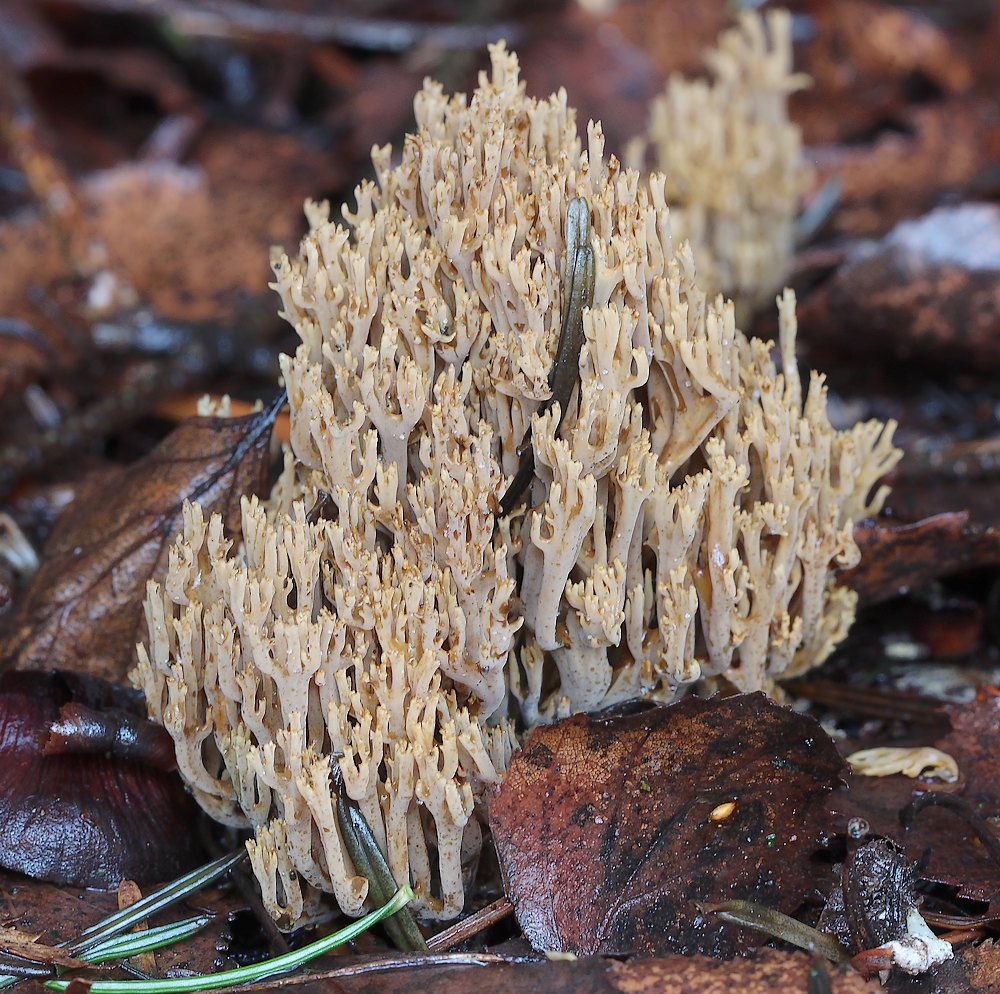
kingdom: Fungi
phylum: Basidiomycota
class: Agaricomycetes
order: Gomphales
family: Gomphaceae
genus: Phaeoclavulina
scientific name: Phaeoclavulina eumorpha
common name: gran-koralsvamp
